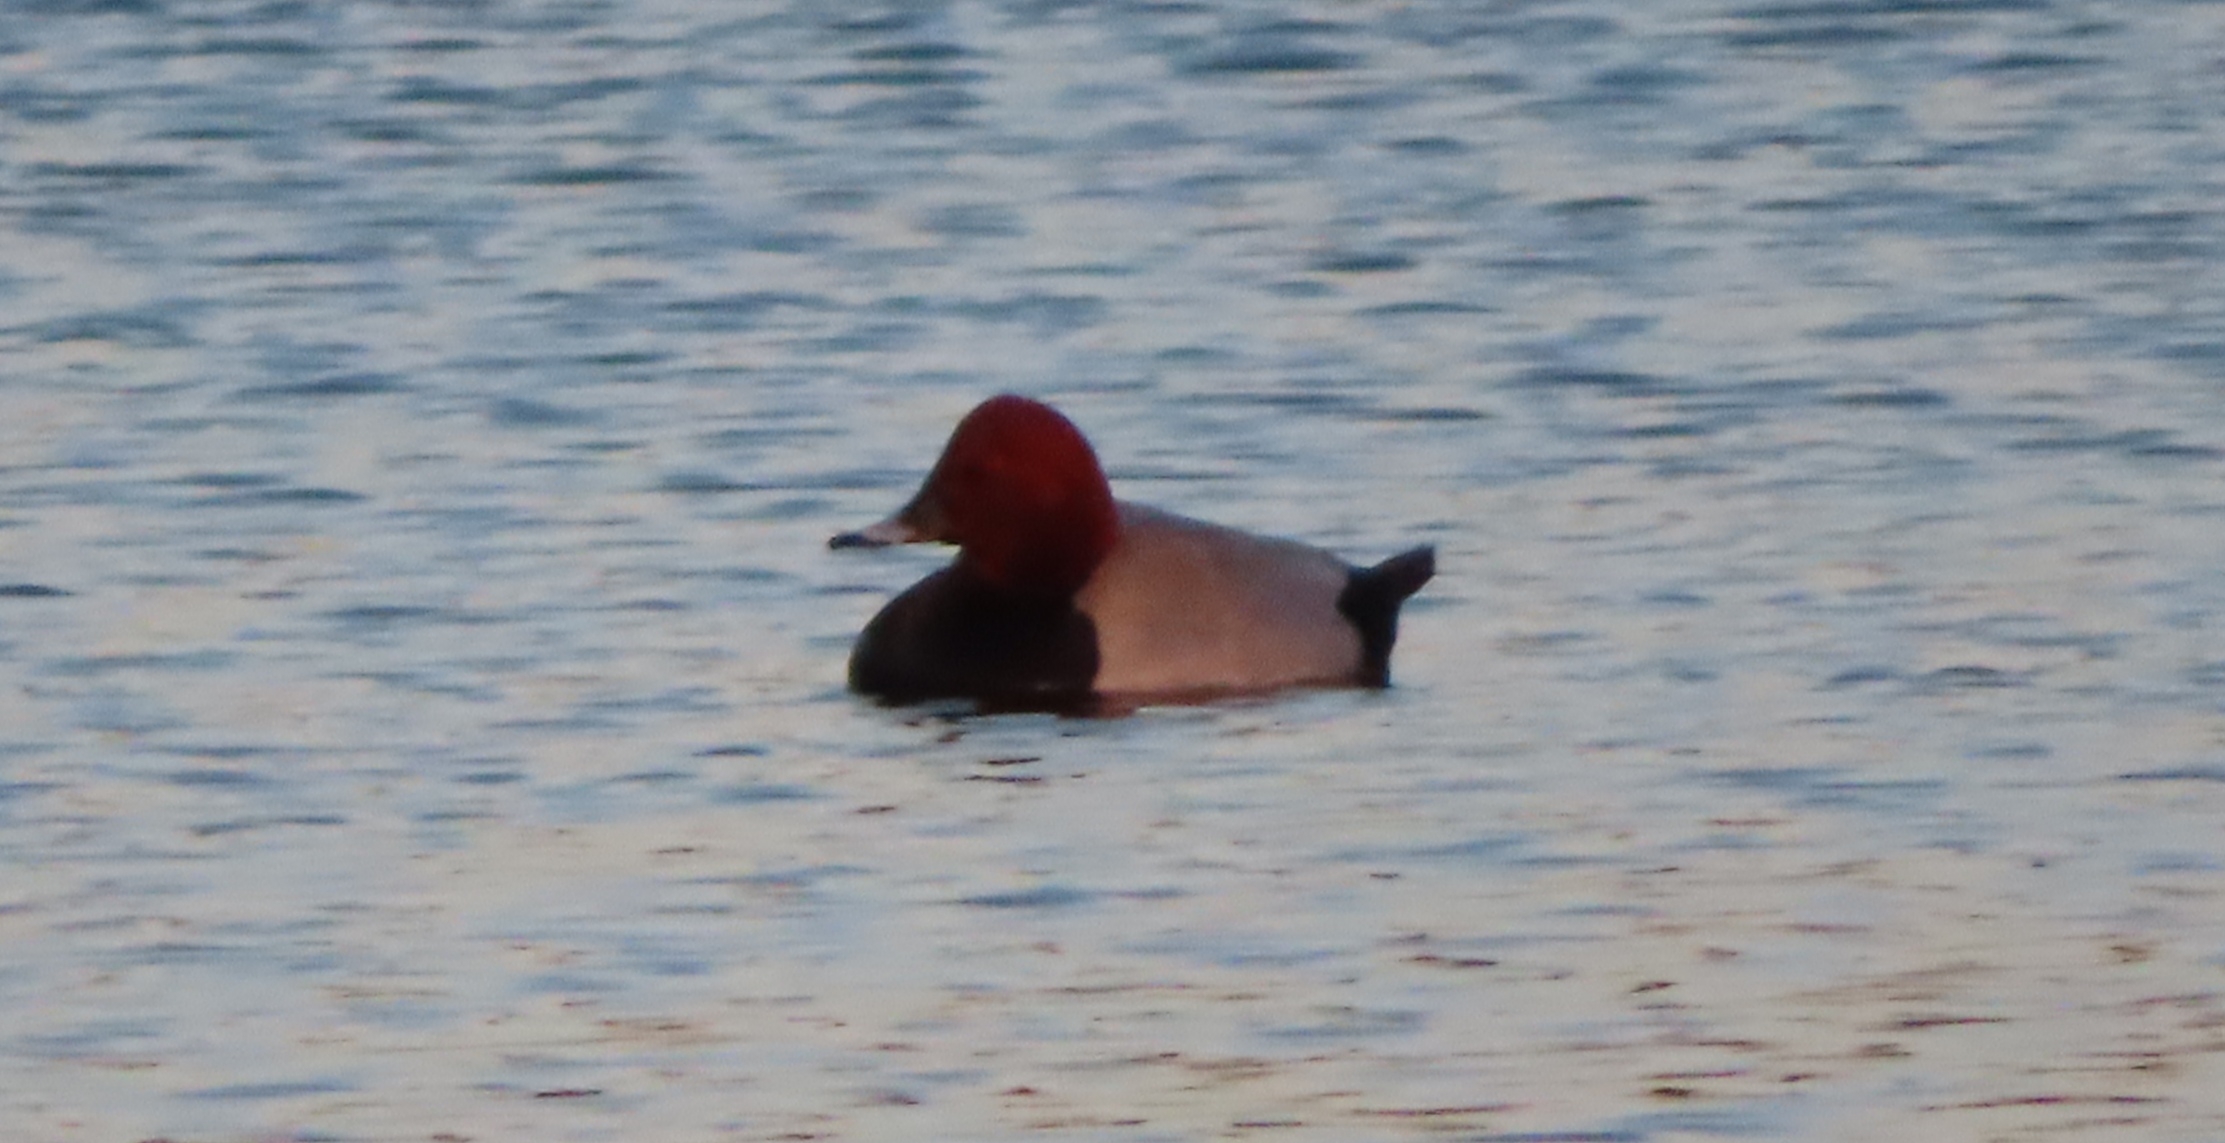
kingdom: Animalia
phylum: Chordata
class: Aves
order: Anseriformes
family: Anatidae
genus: Aythya
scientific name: Aythya ferina
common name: Taffeland
